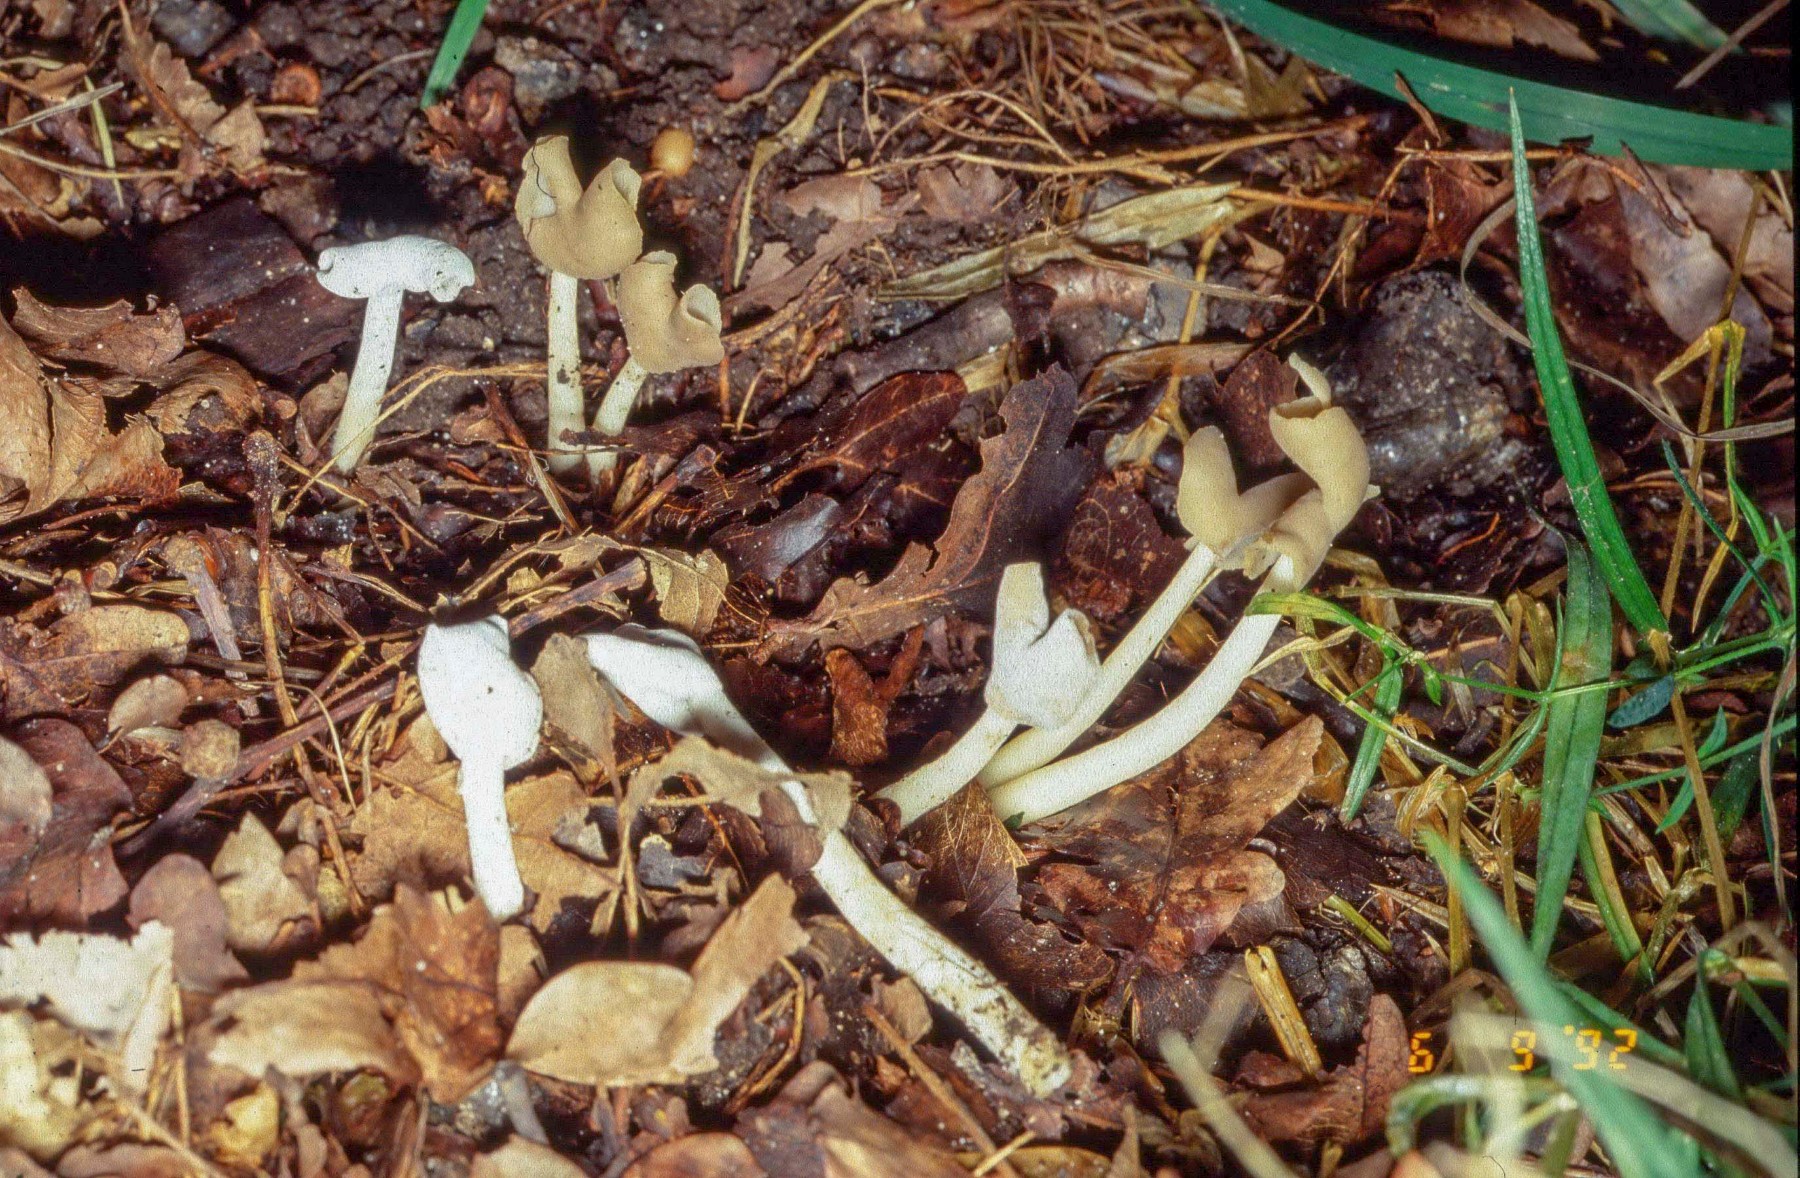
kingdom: Fungi
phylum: Ascomycota
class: Sordariomycetes
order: Hypocreales
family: Hypocreaceae
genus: Hypomyces
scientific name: Hypomyces cervinus
